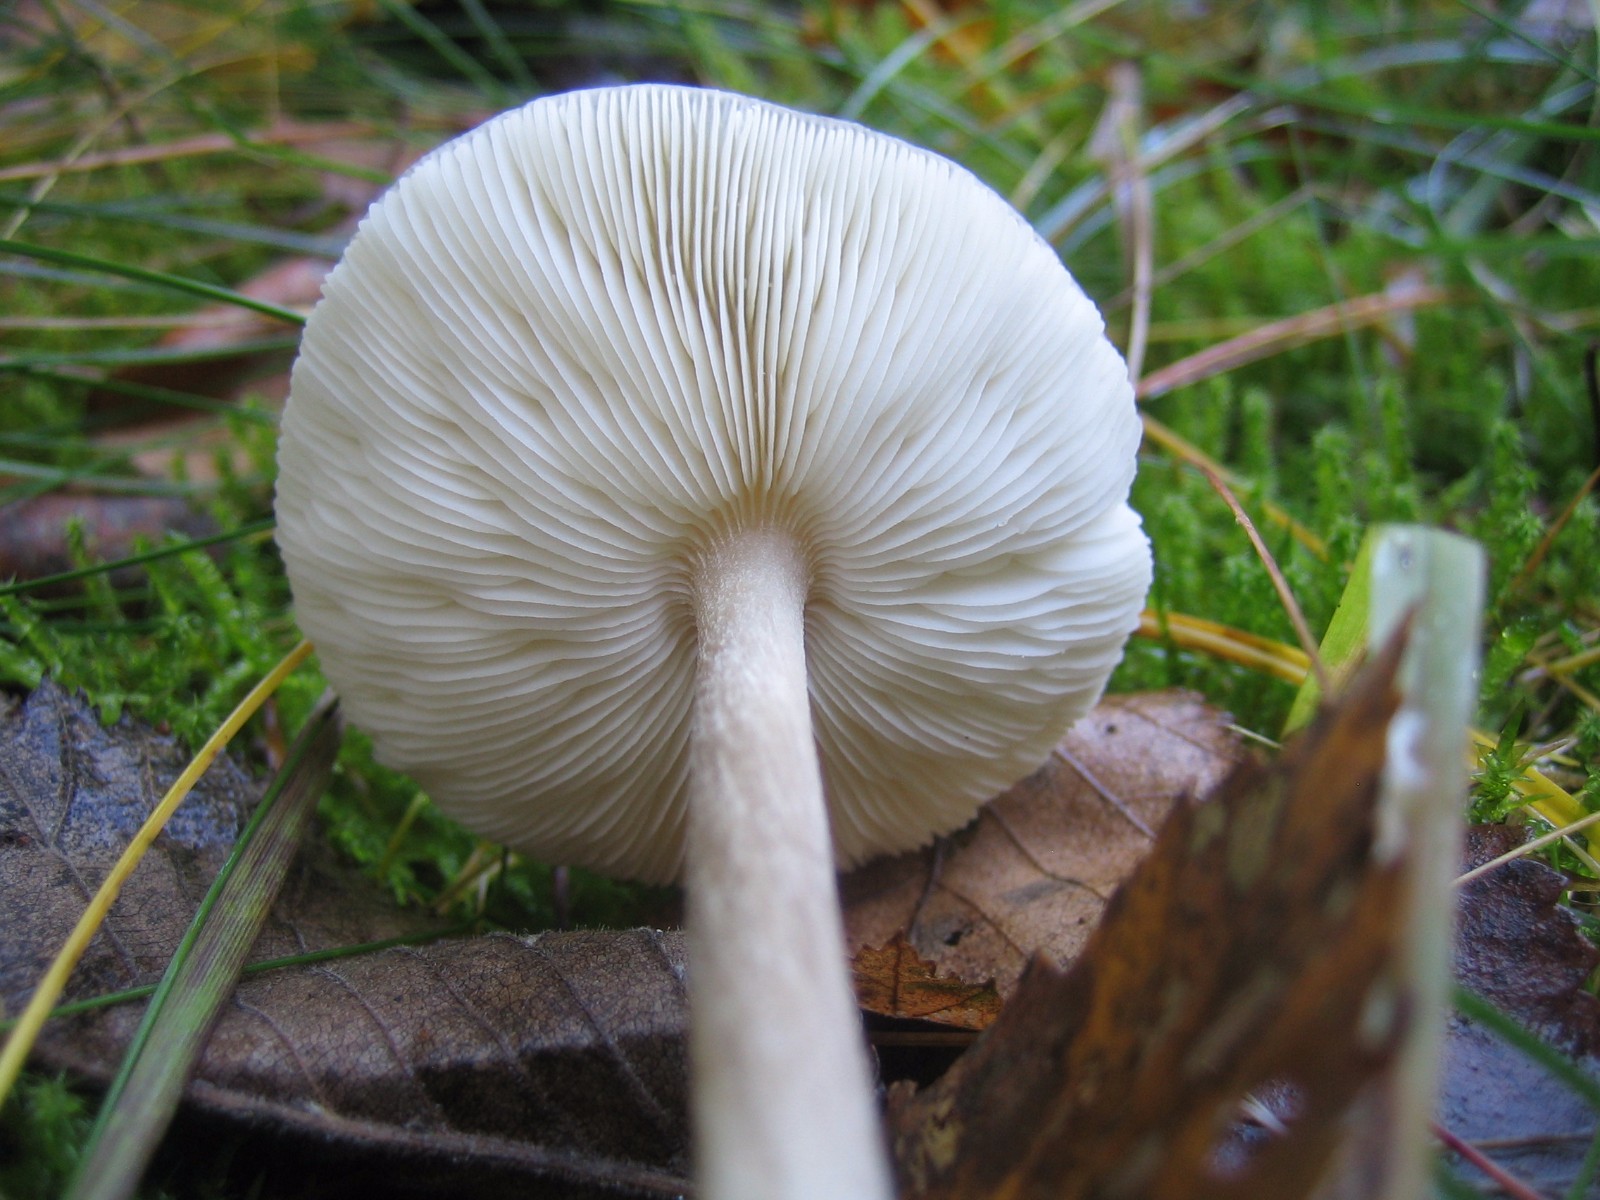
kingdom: Fungi
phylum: Basidiomycota
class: Agaricomycetes
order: Agaricales
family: Tricholomataceae
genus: Melanoleuca
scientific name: Melanoleuca
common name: munkehat
